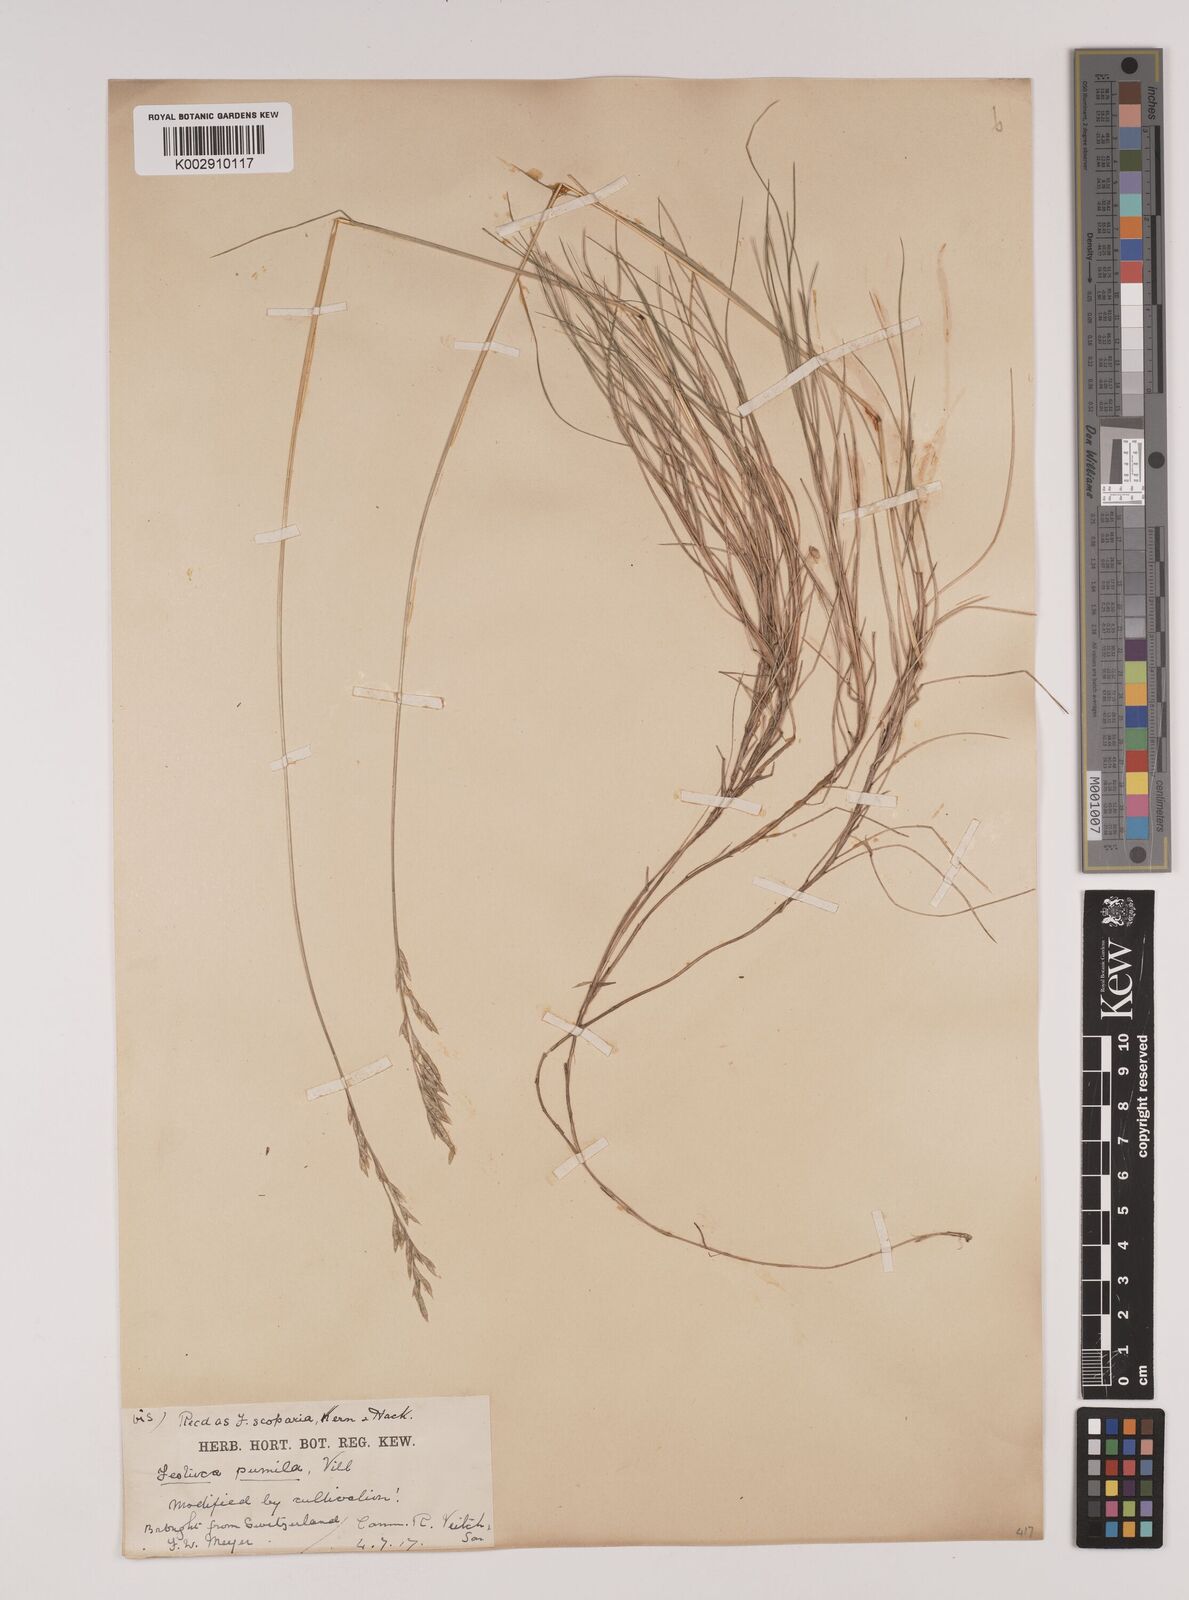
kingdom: Plantae
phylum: Tracheophyta
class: Liliopsida
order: Poales
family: Poaceae
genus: Festuca
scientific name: Festuca
